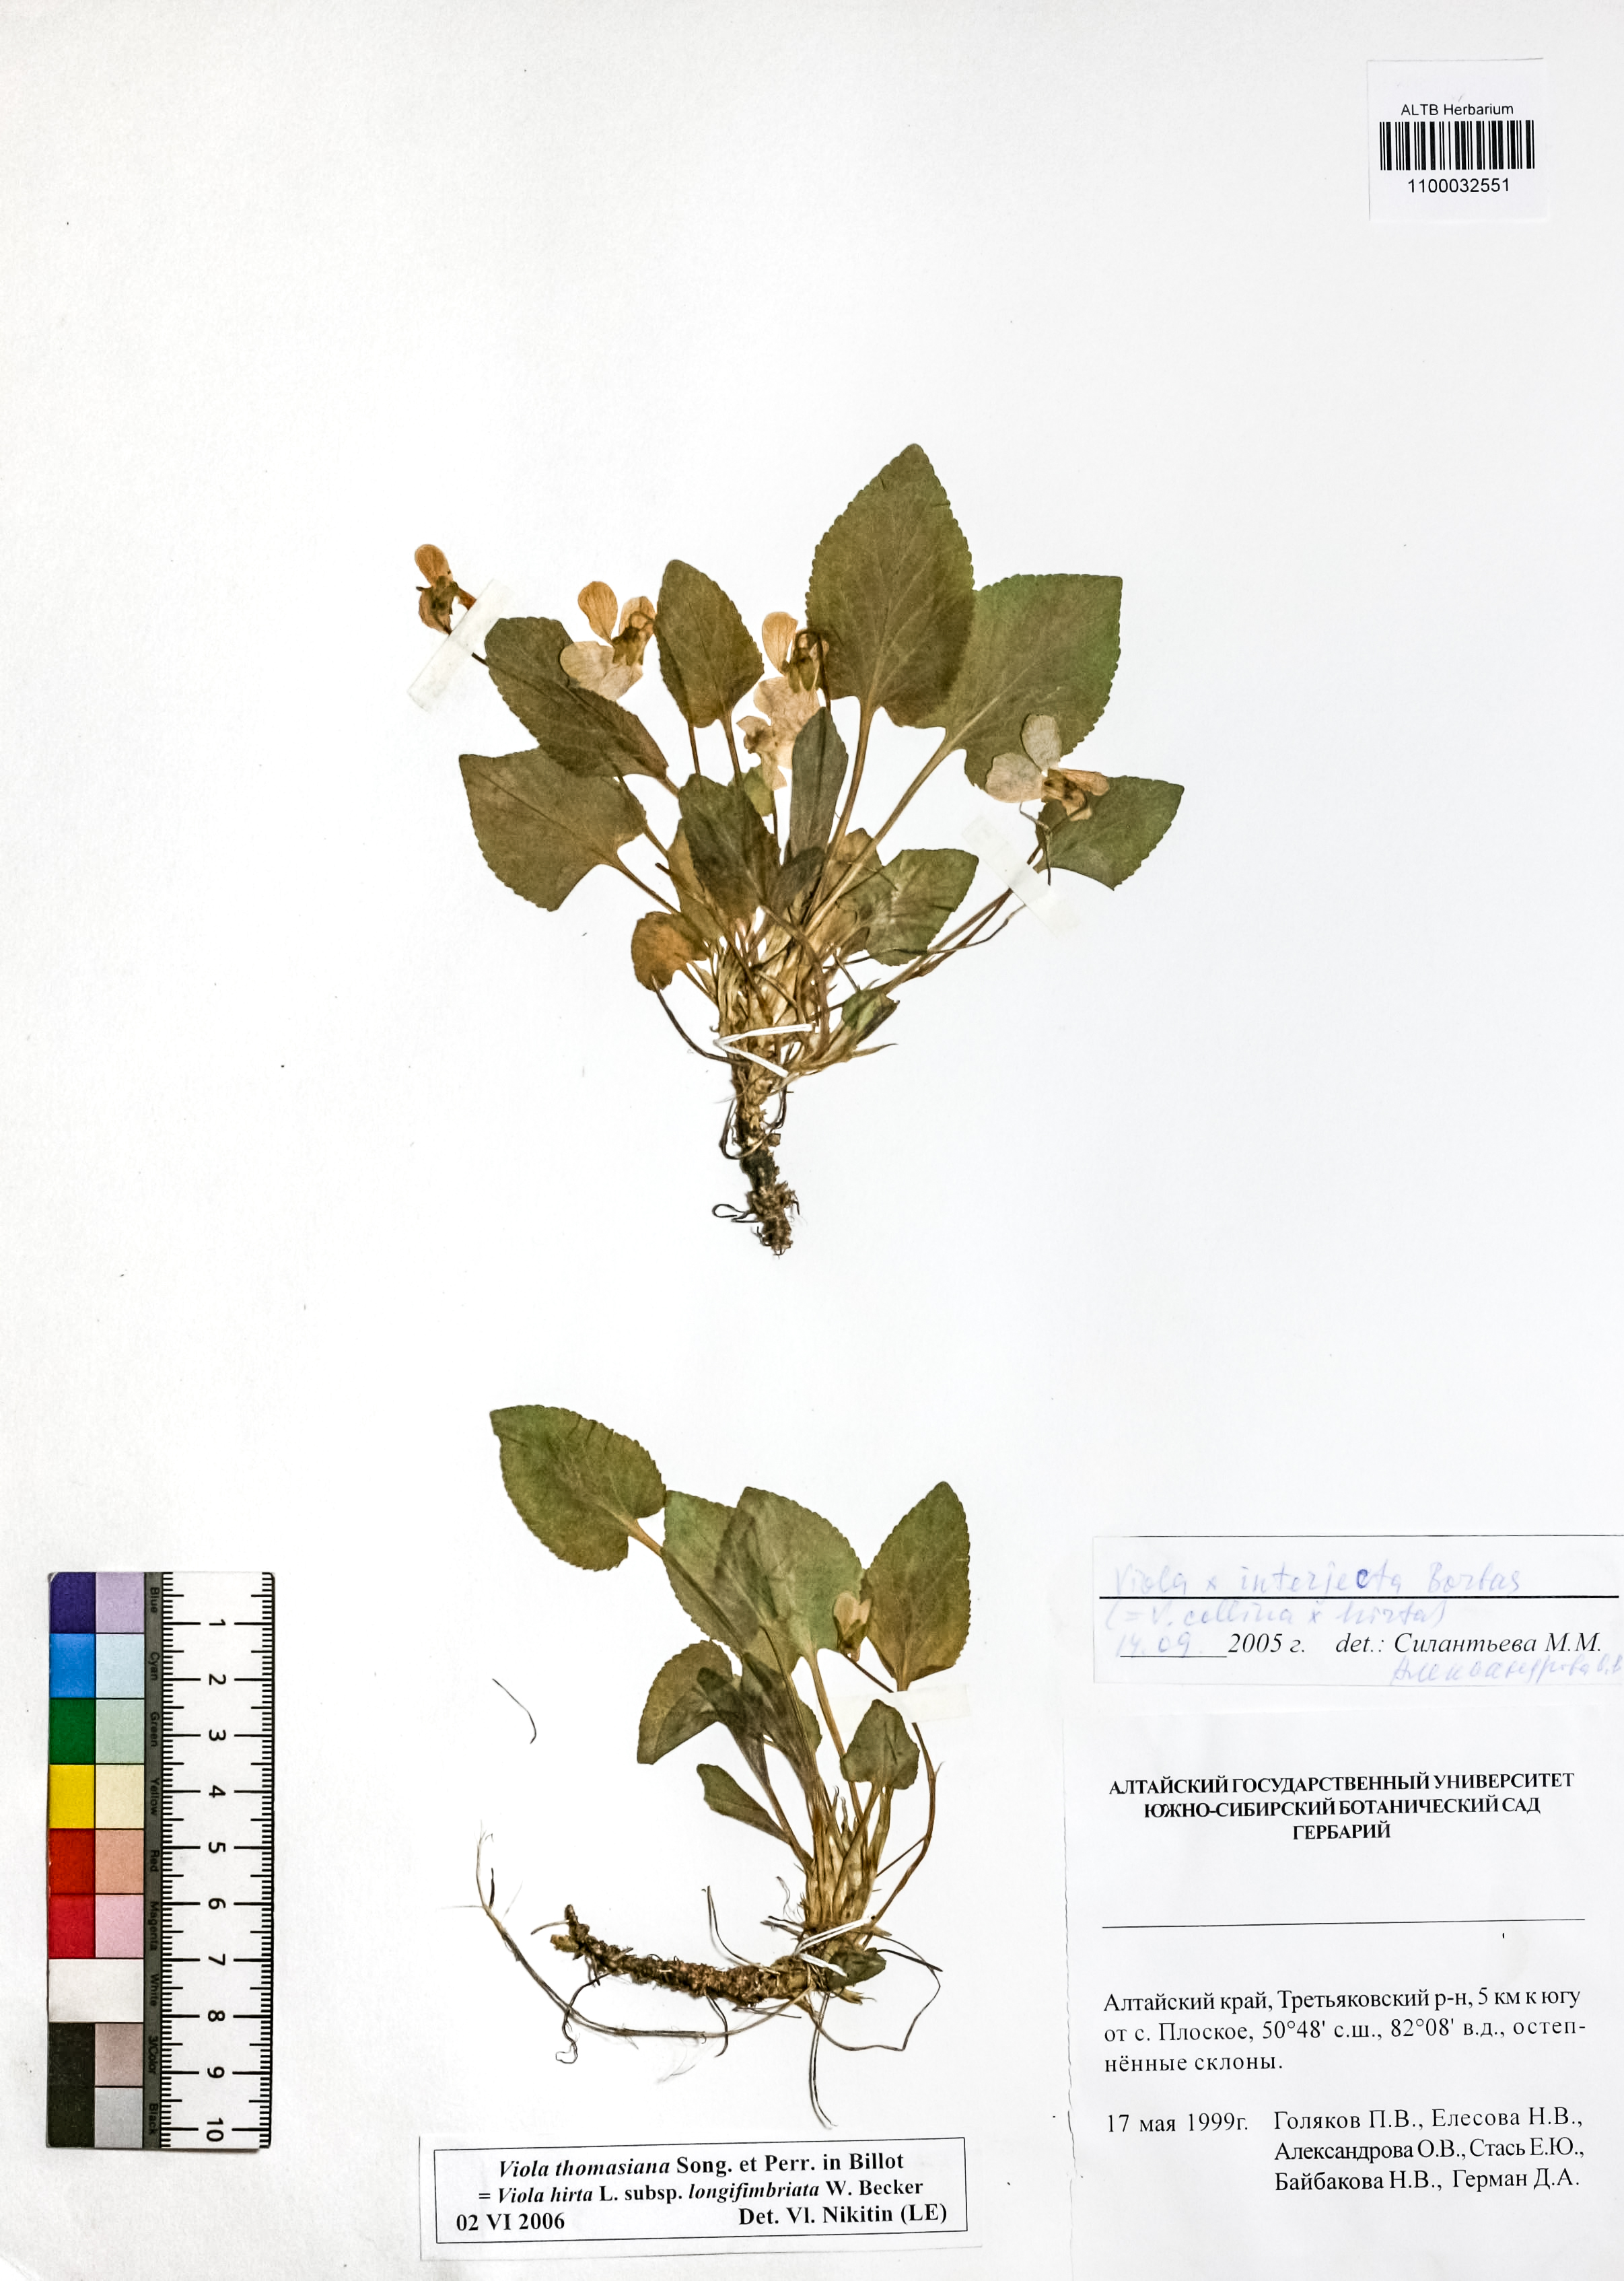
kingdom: Plantae
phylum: Tracheophyta
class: Magnoliopsida
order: Malpighiales
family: Violaceae
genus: Viola
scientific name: Viola thomasiana
